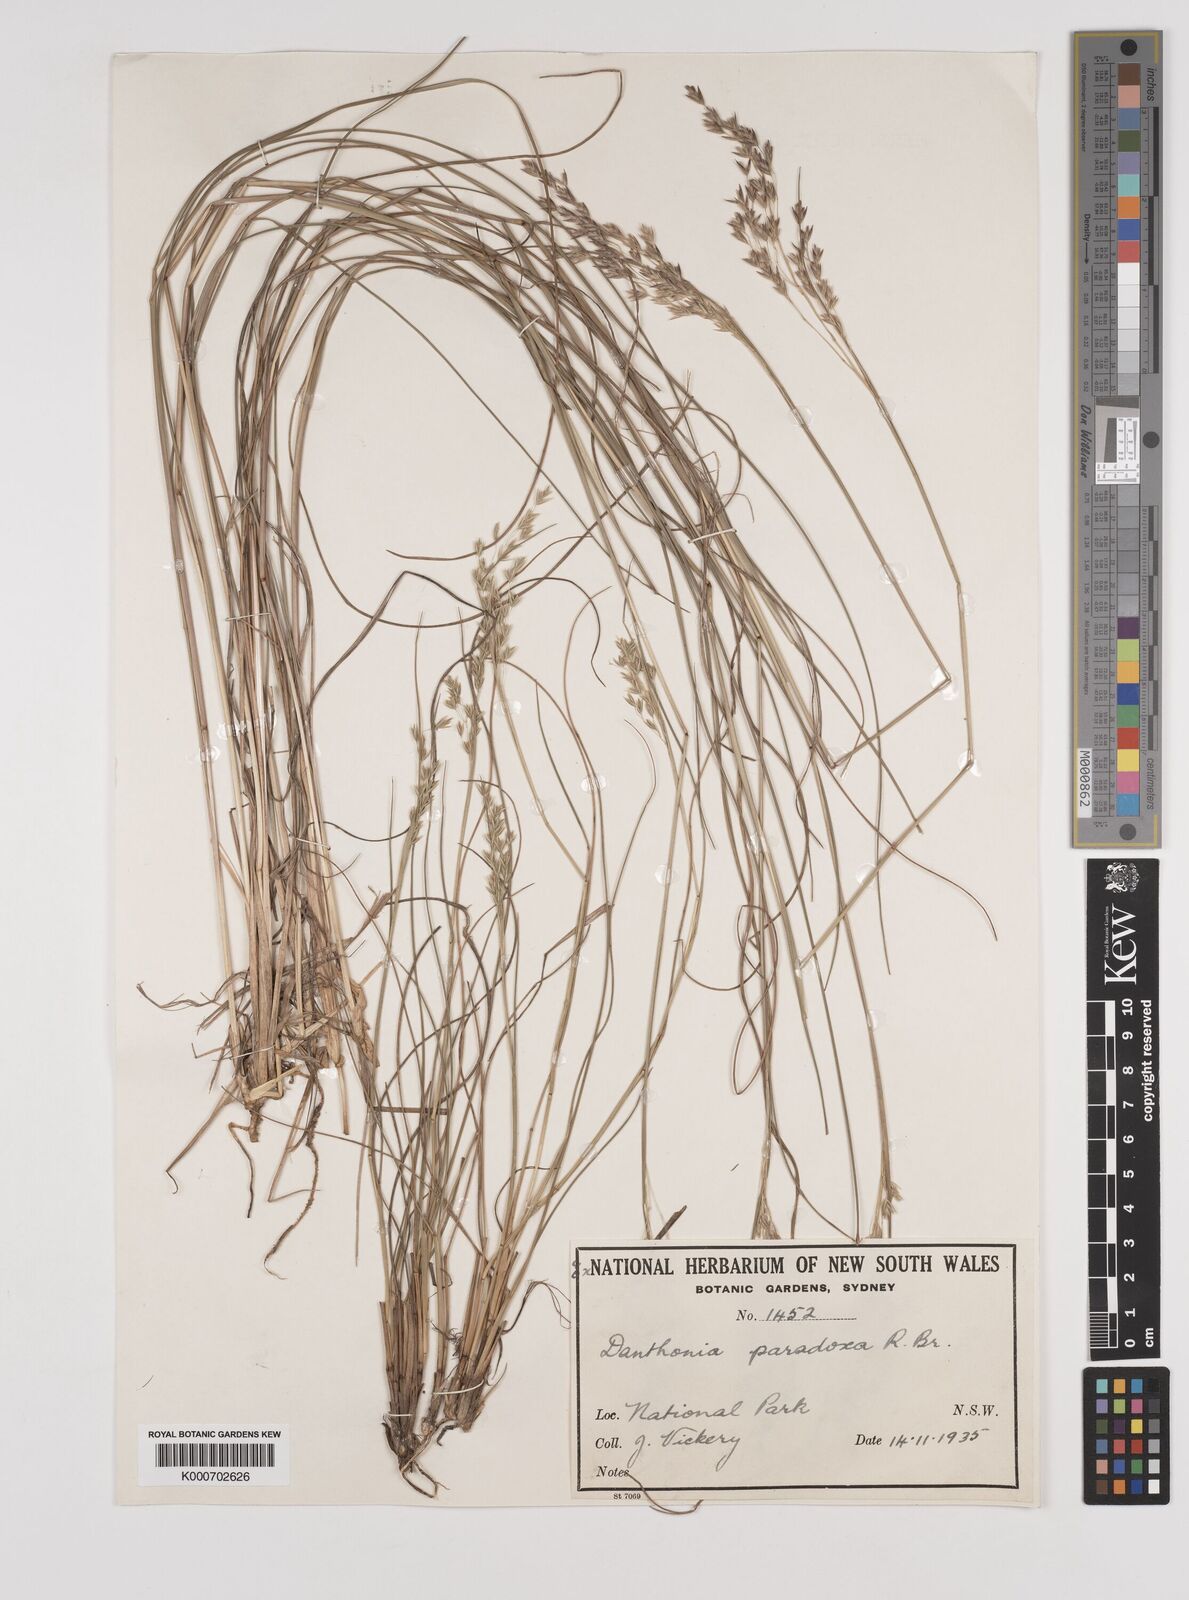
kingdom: Plantae
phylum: Tracheophyta
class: Liliopsida
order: Poales
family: Poaceae
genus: Plinthanthesis
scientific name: Plinthanthesis paradoxa
